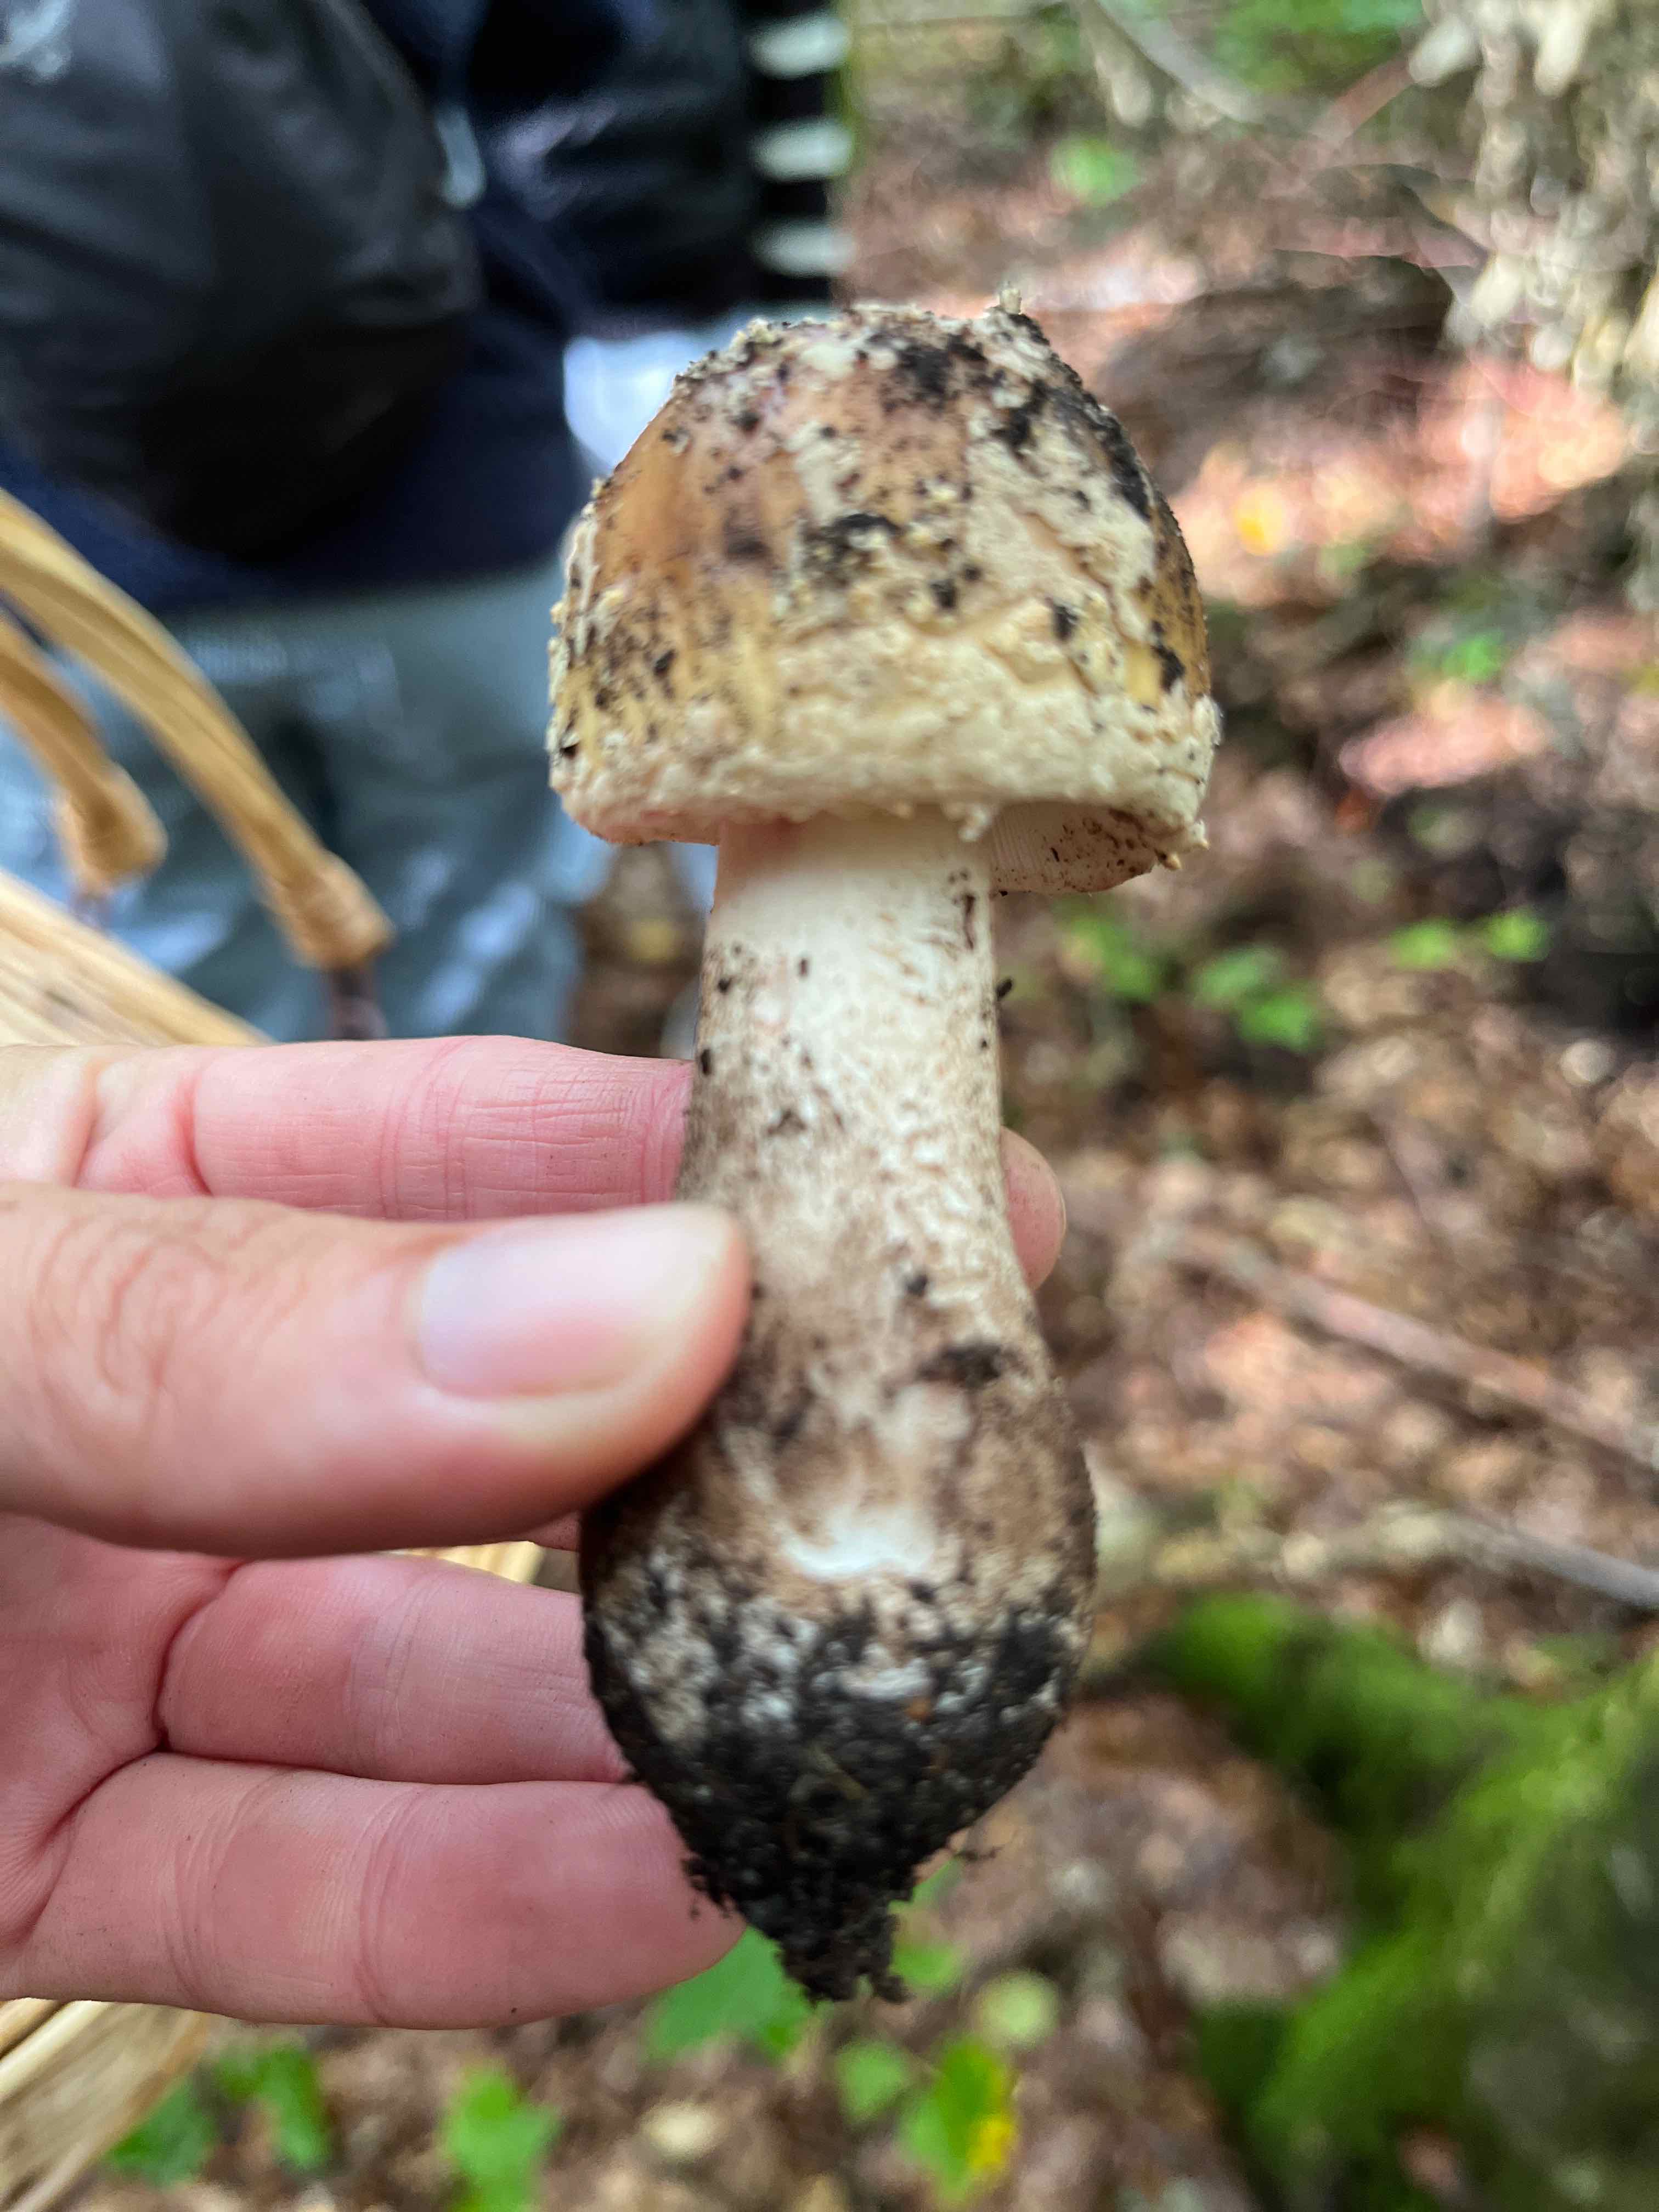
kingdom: Fungi
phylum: Basidiomycota
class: Agaricomycetes
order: Agaricales
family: Amanitaceae
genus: Amanita
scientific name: Amanita rubescens
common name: rødmende fluesvamp
